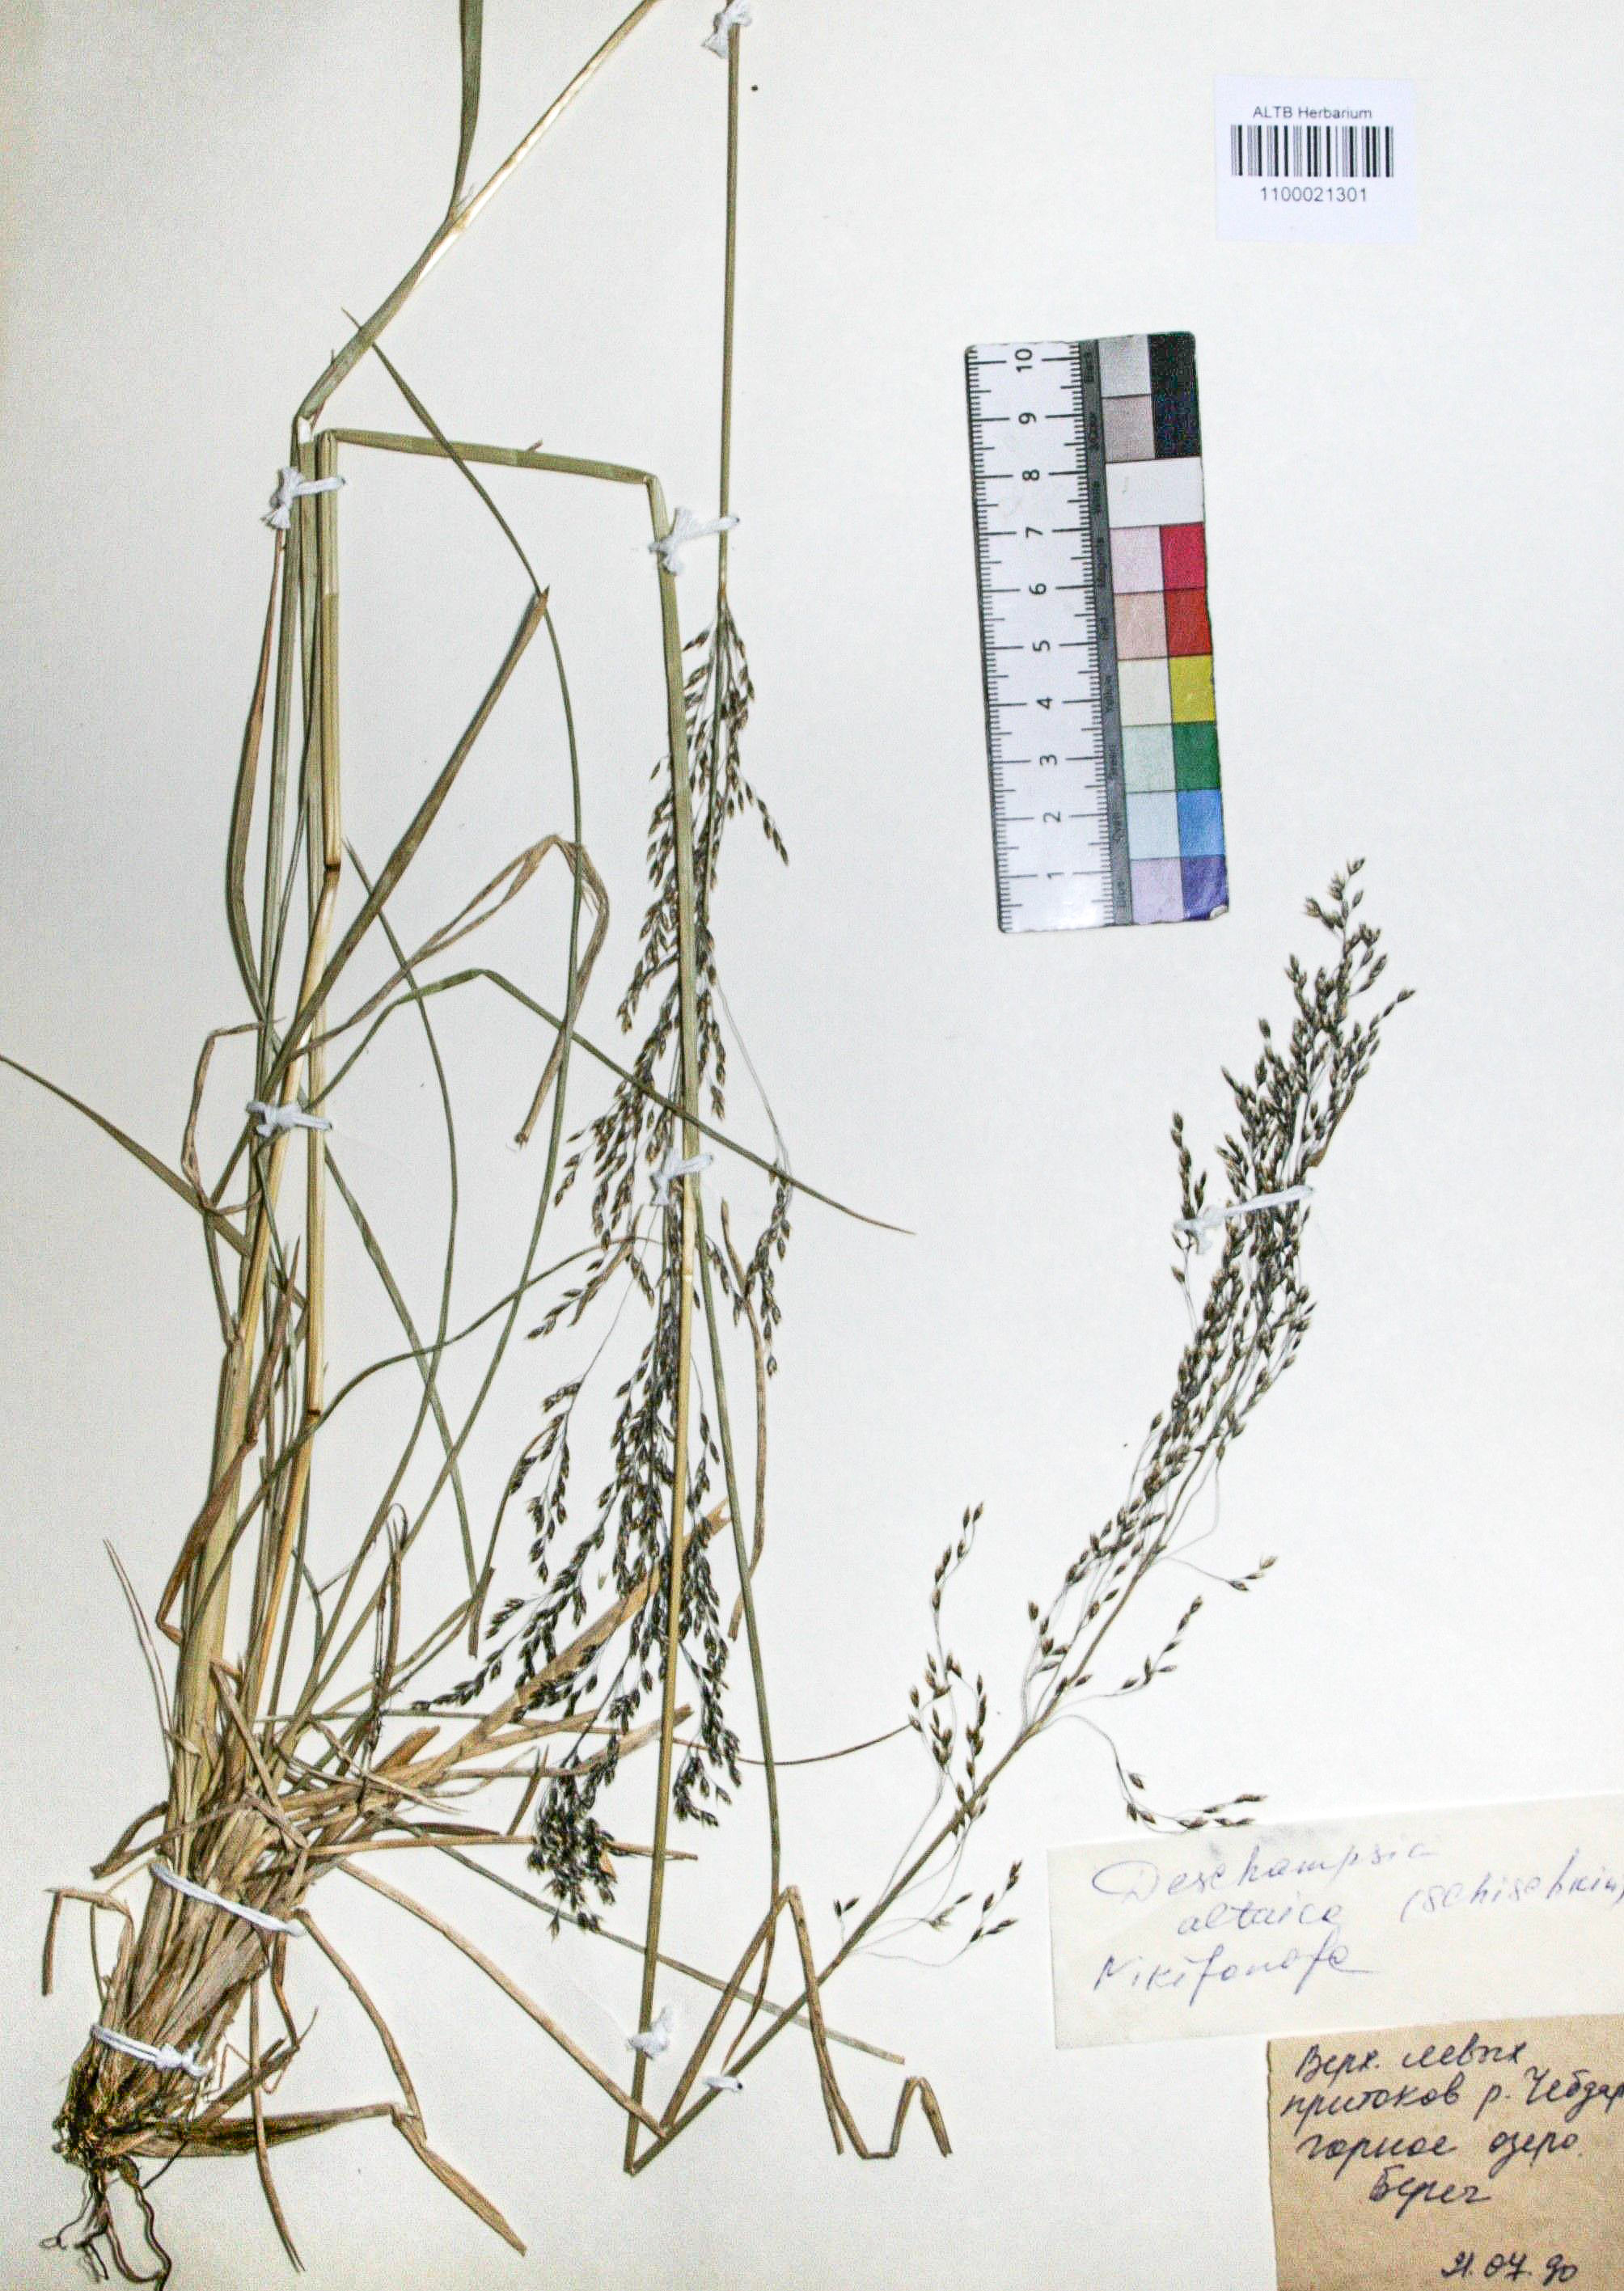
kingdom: Plantae
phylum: Tracheophyta
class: Liliopsida
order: Poales
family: Poaceae
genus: Deschampsia
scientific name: Deschampsia cespitosa
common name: Tufted hair-grass
